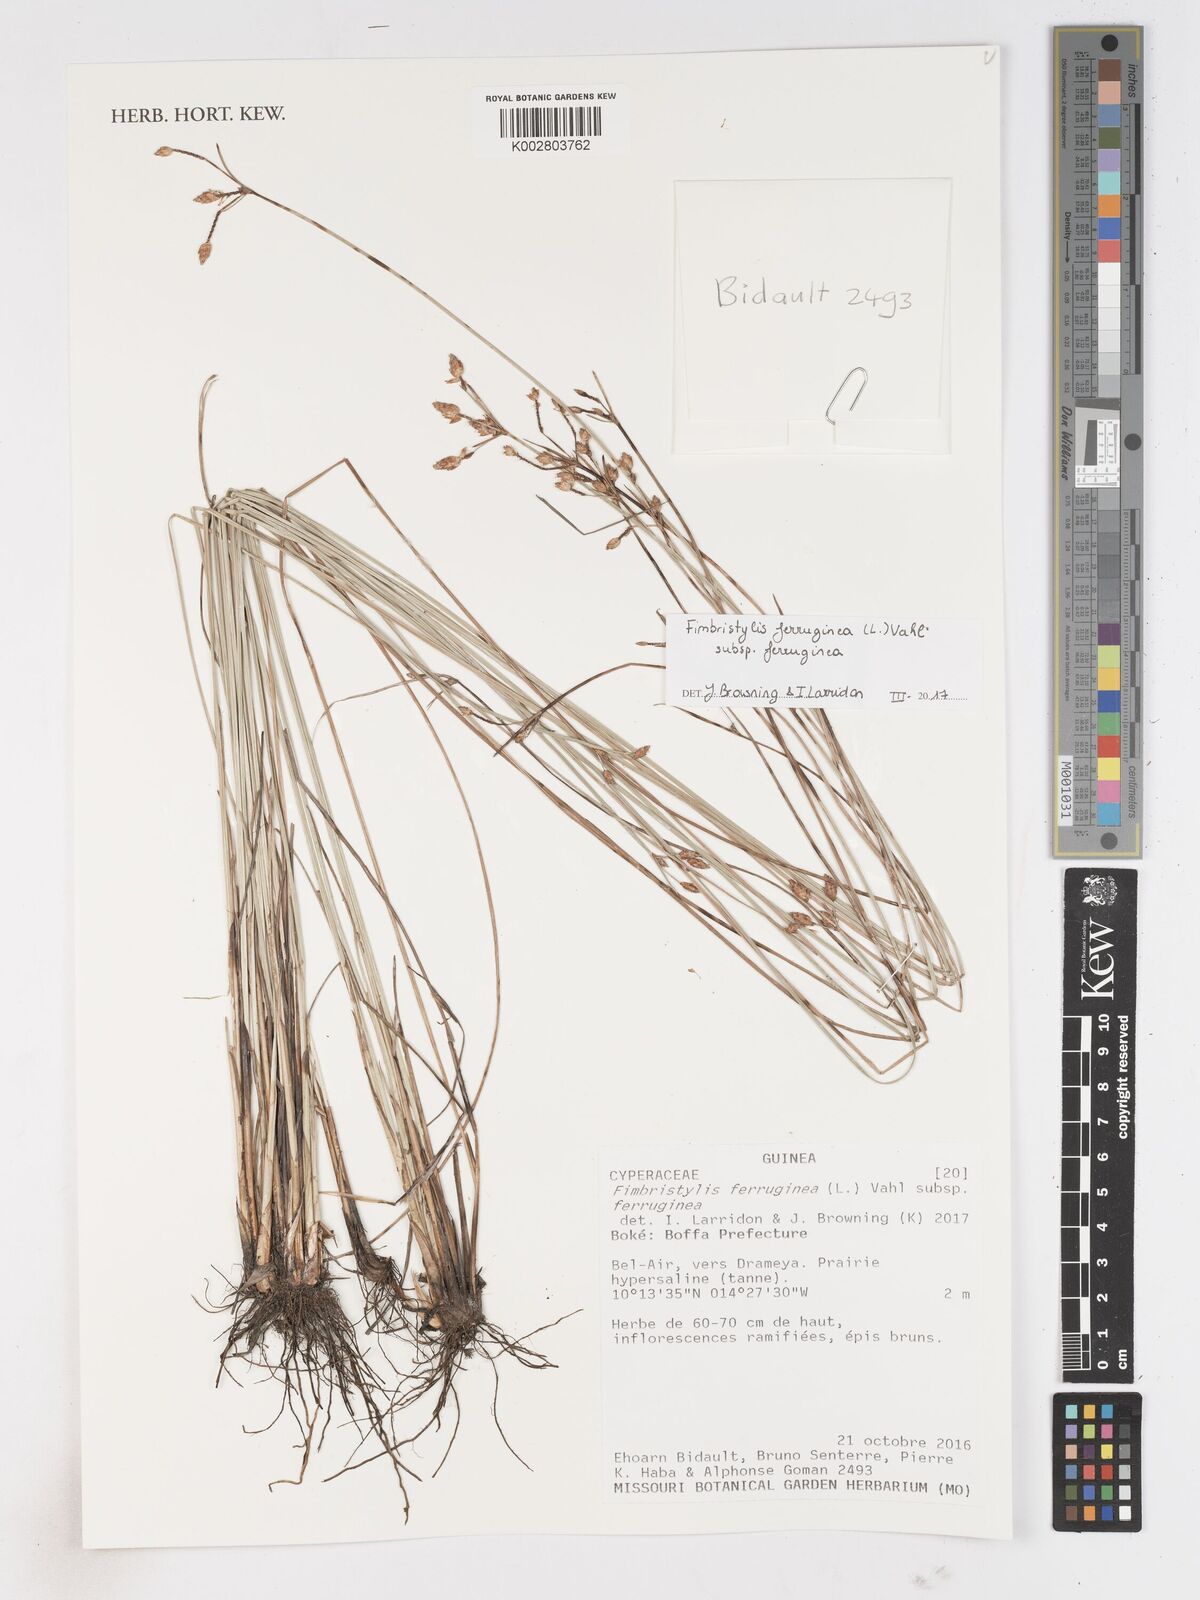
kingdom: Plantae
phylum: Tracheophyta
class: Liliopsida
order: Poales
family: Cyperaceae
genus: Fimbristylis
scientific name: Fimbristylis ferruginea
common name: West indian fimbry
